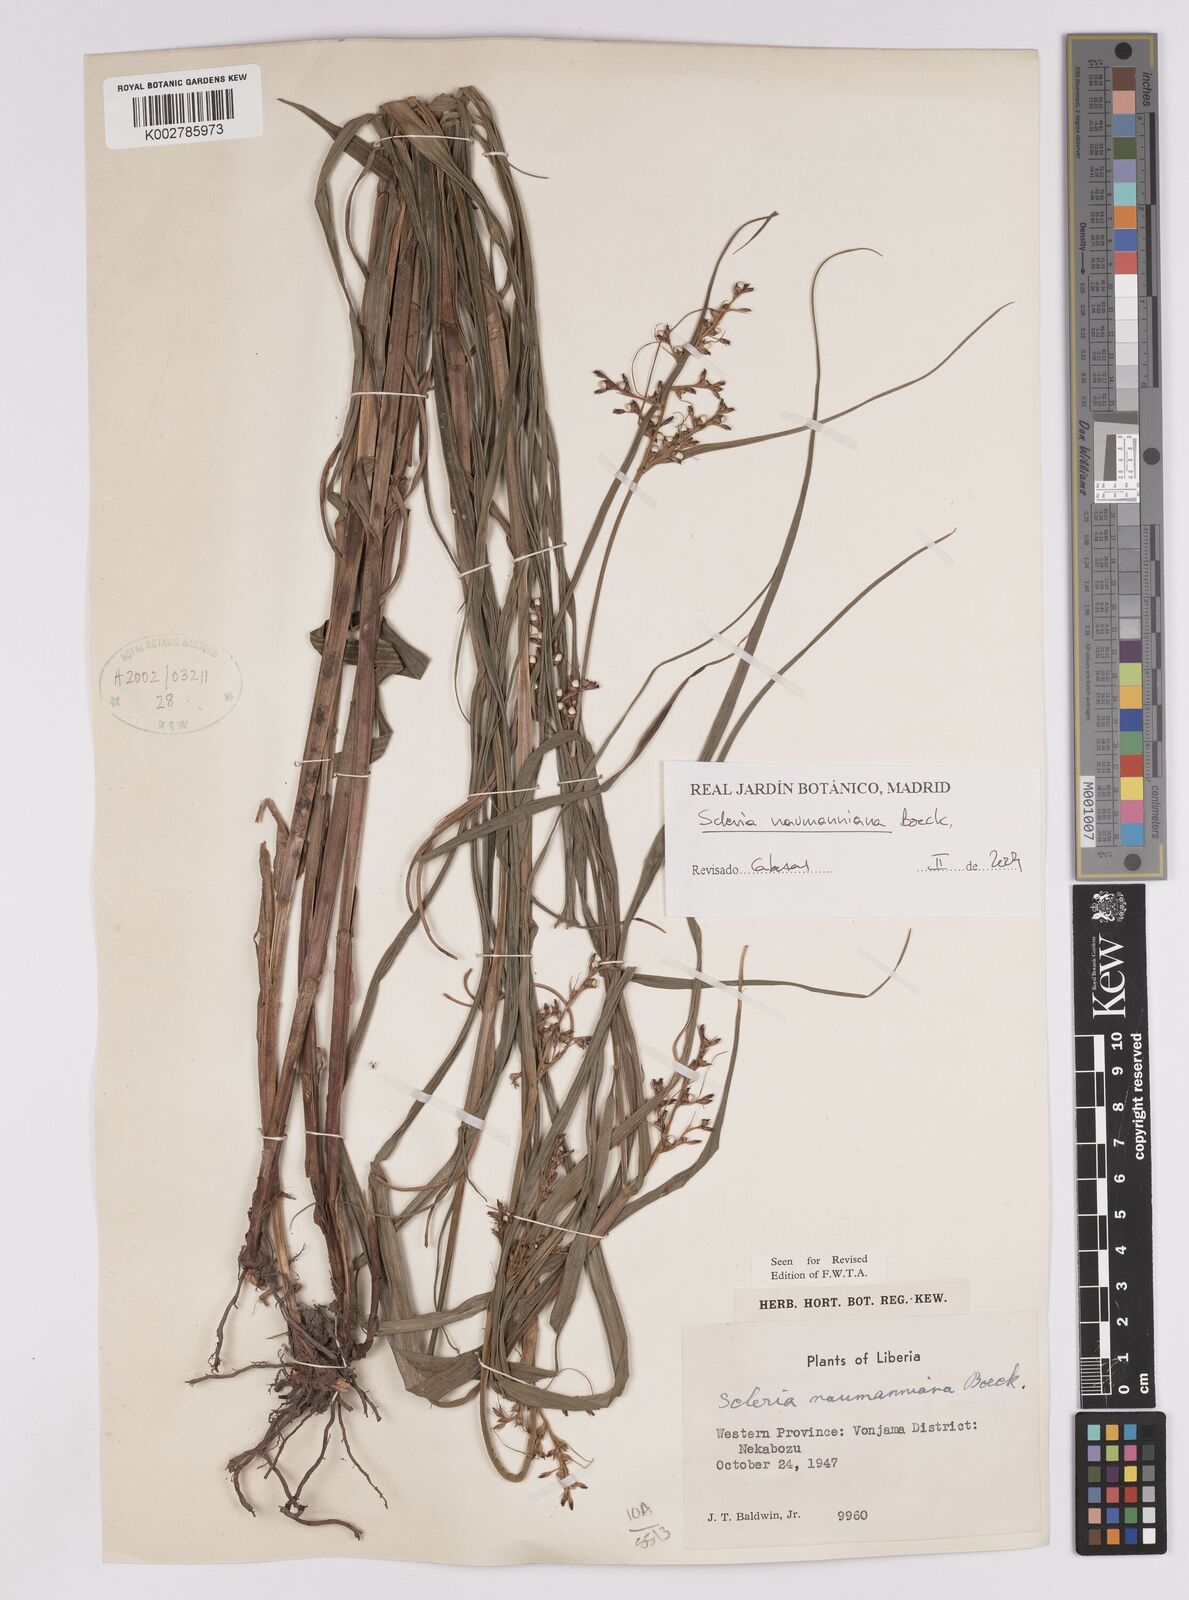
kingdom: Plantae
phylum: Tracheophyta
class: Liliopsida
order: Poales
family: Cyperaceae
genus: Scleria
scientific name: Scleria naumanniana
